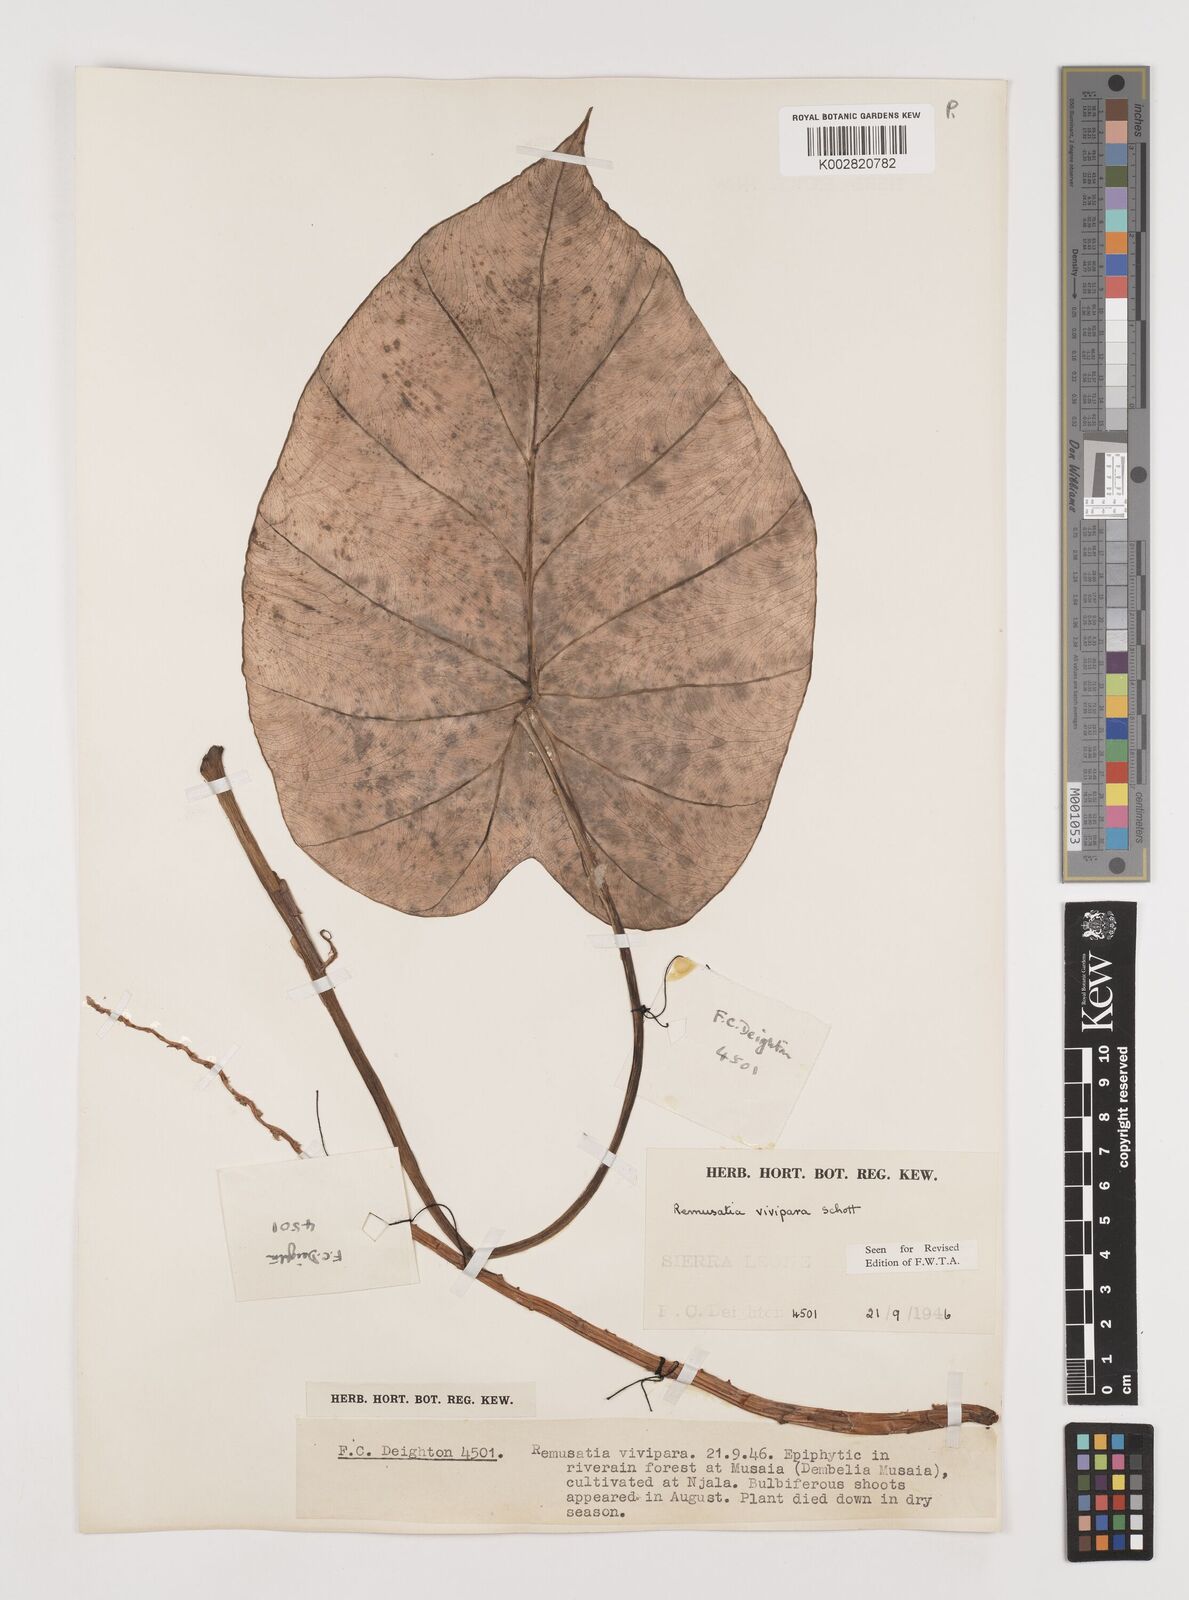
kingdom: Plantae
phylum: Tracheophyta
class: Liliopsida
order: Alismatales
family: Araceae
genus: Remusatia
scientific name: Remusatia vivipara
